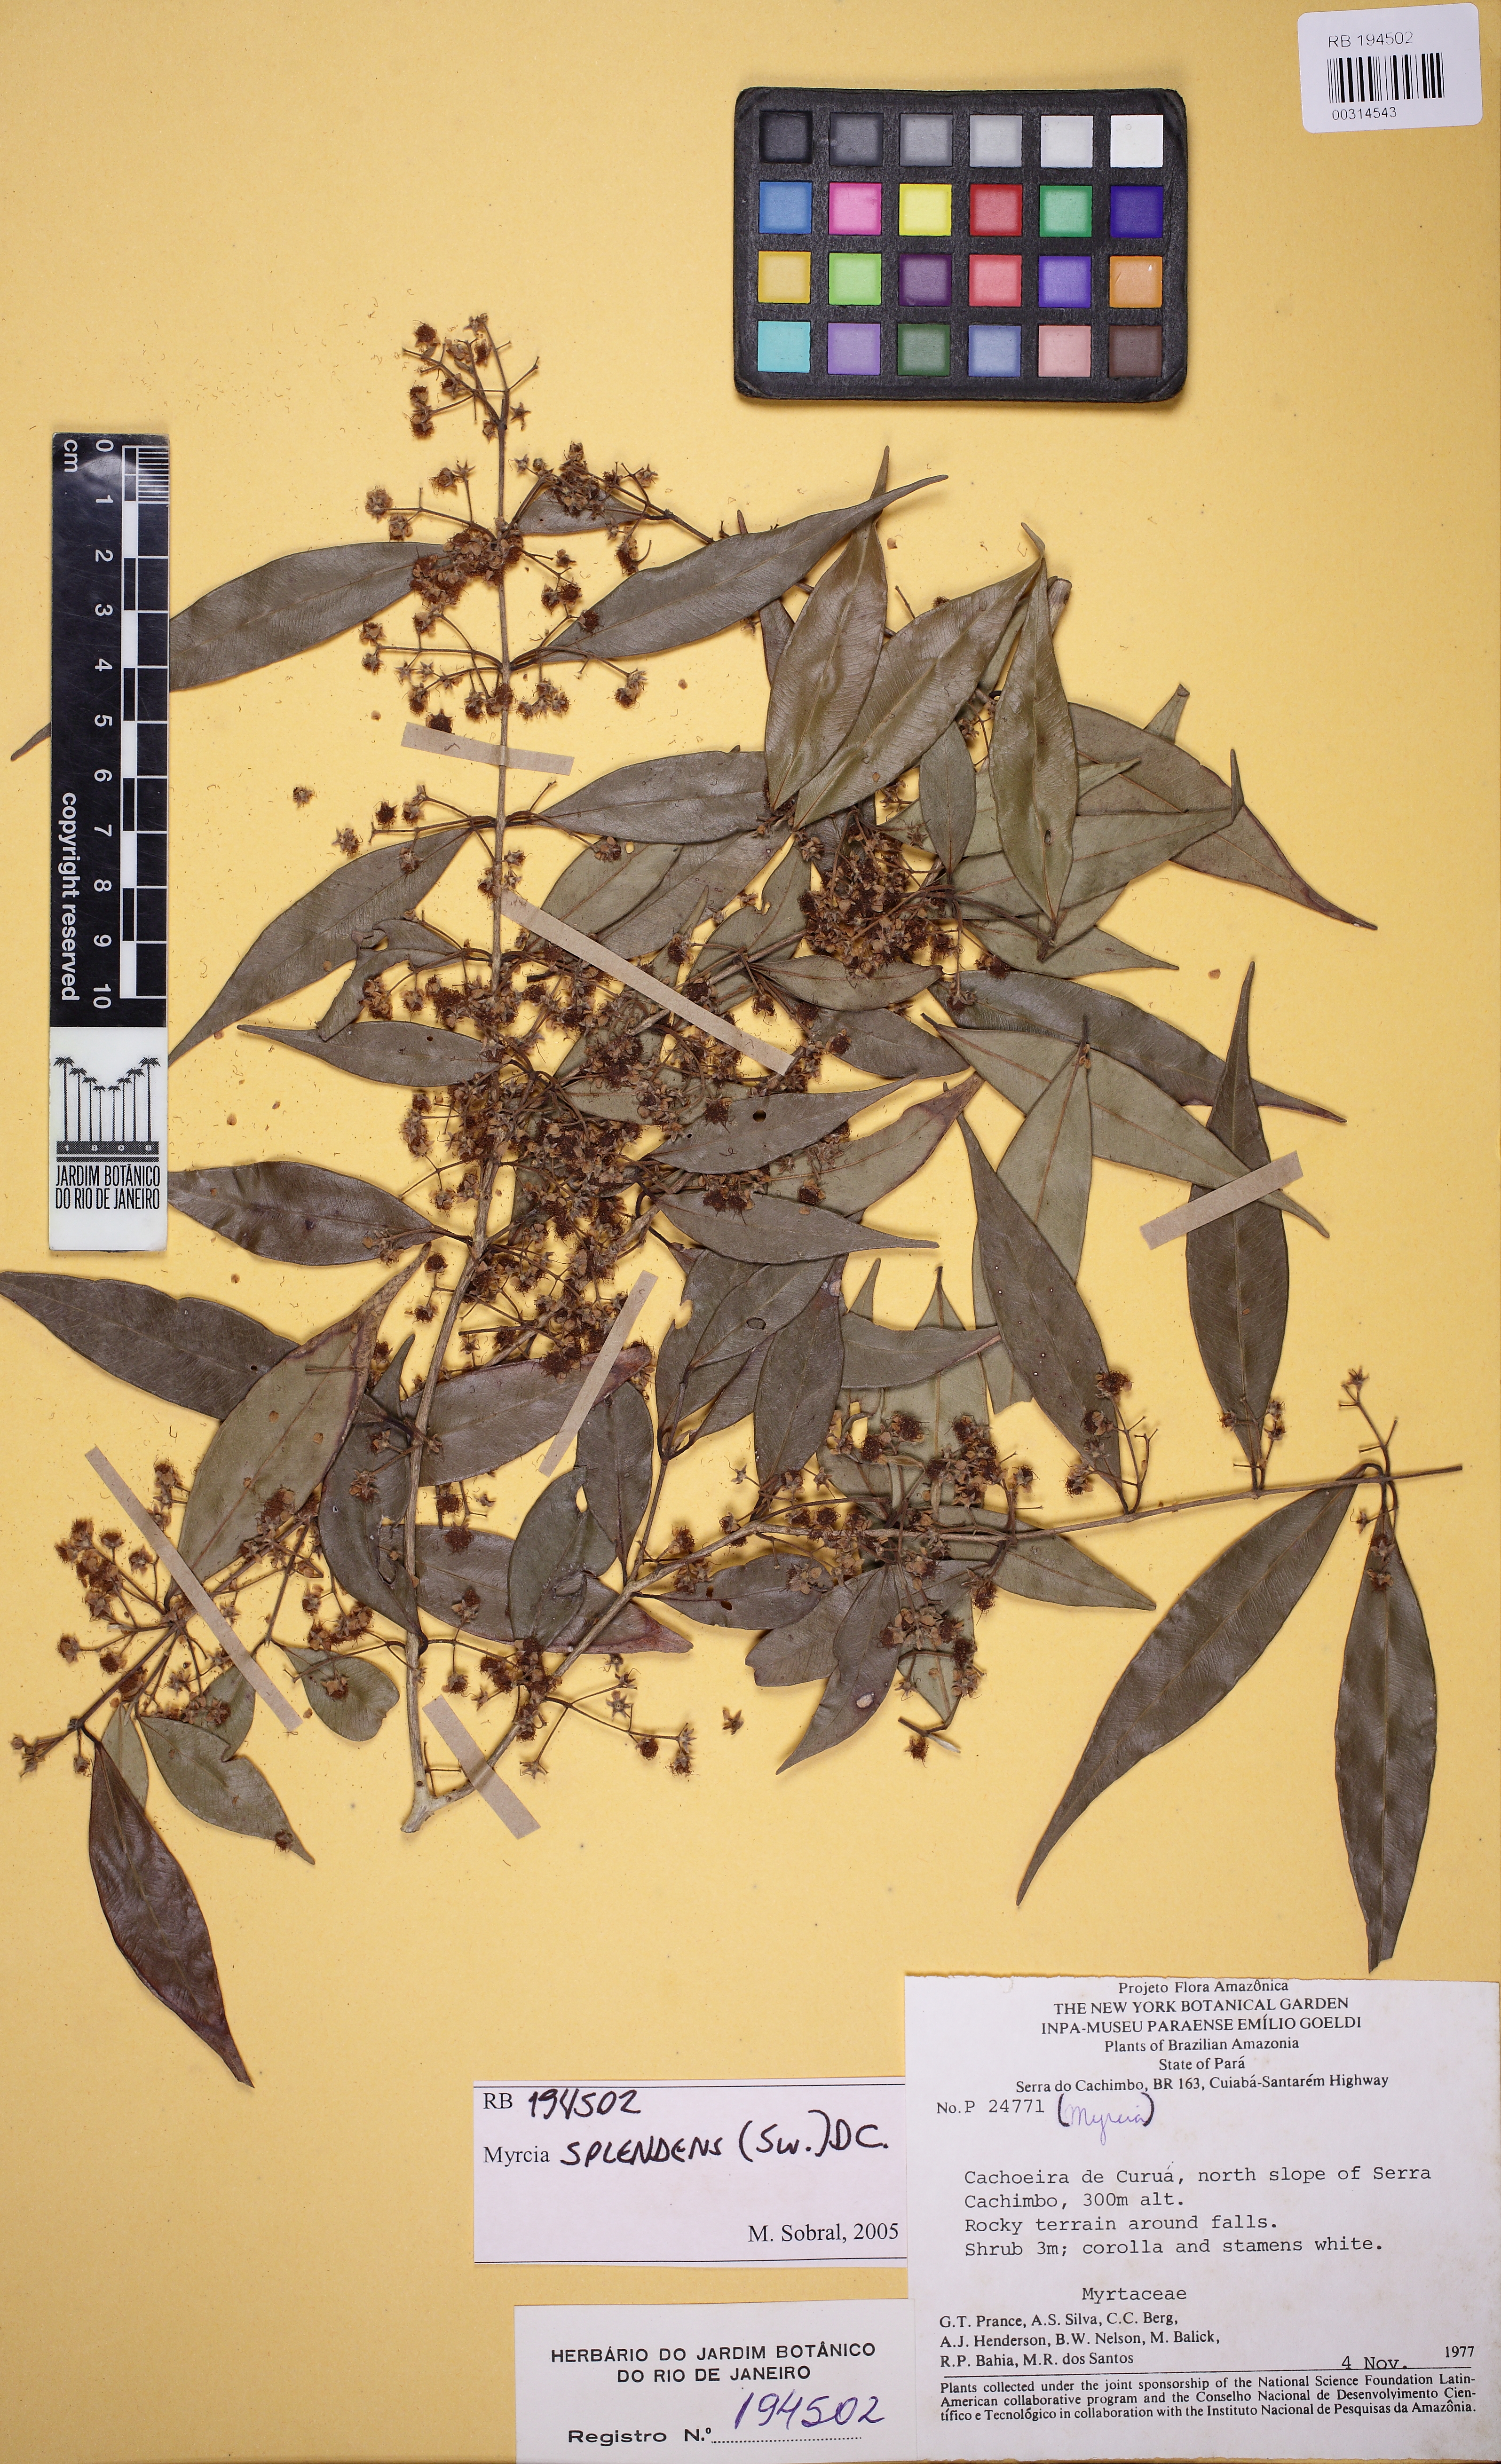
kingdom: Plantae
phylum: Tracheophyta
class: Magnoliopsida
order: Myrtales
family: Myrtaceae
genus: Myrcia
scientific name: Myrcia splendens
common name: Surinam cherry
